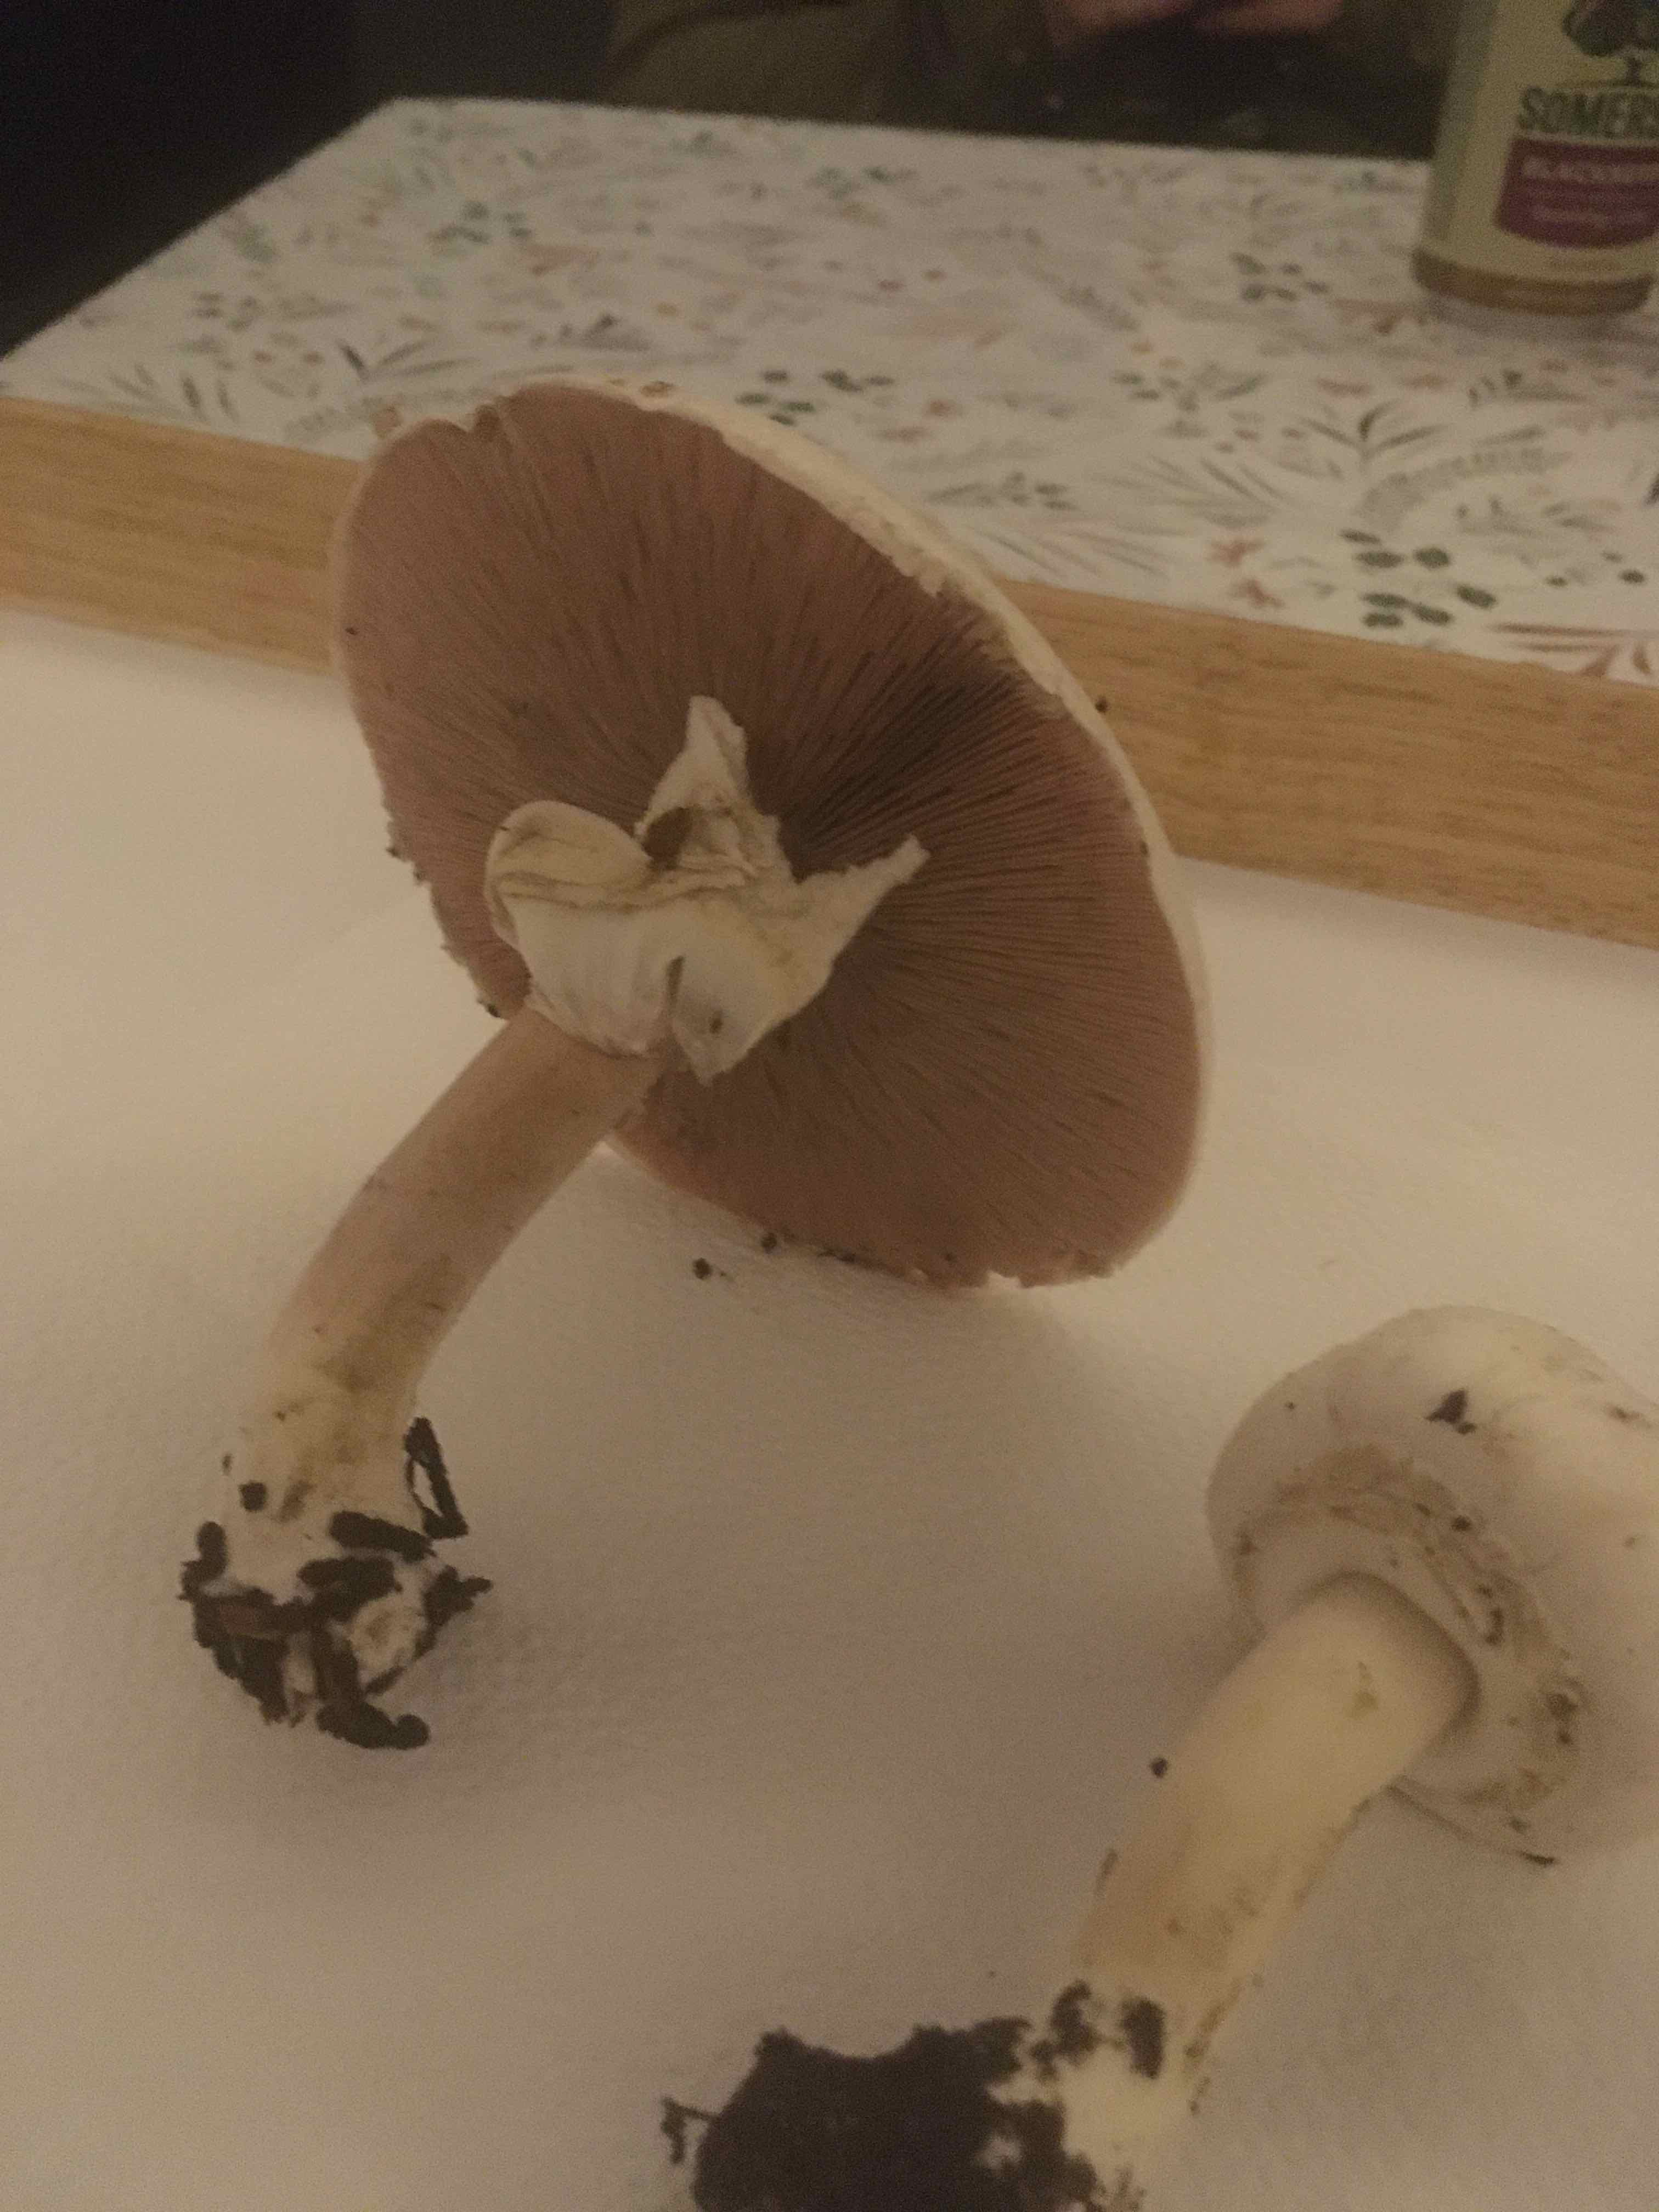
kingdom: Fungi
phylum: Basidiomycota
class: Agaricomycetes
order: Agaricales
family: Agaricaceae
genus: Agaricus
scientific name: Agaricus
